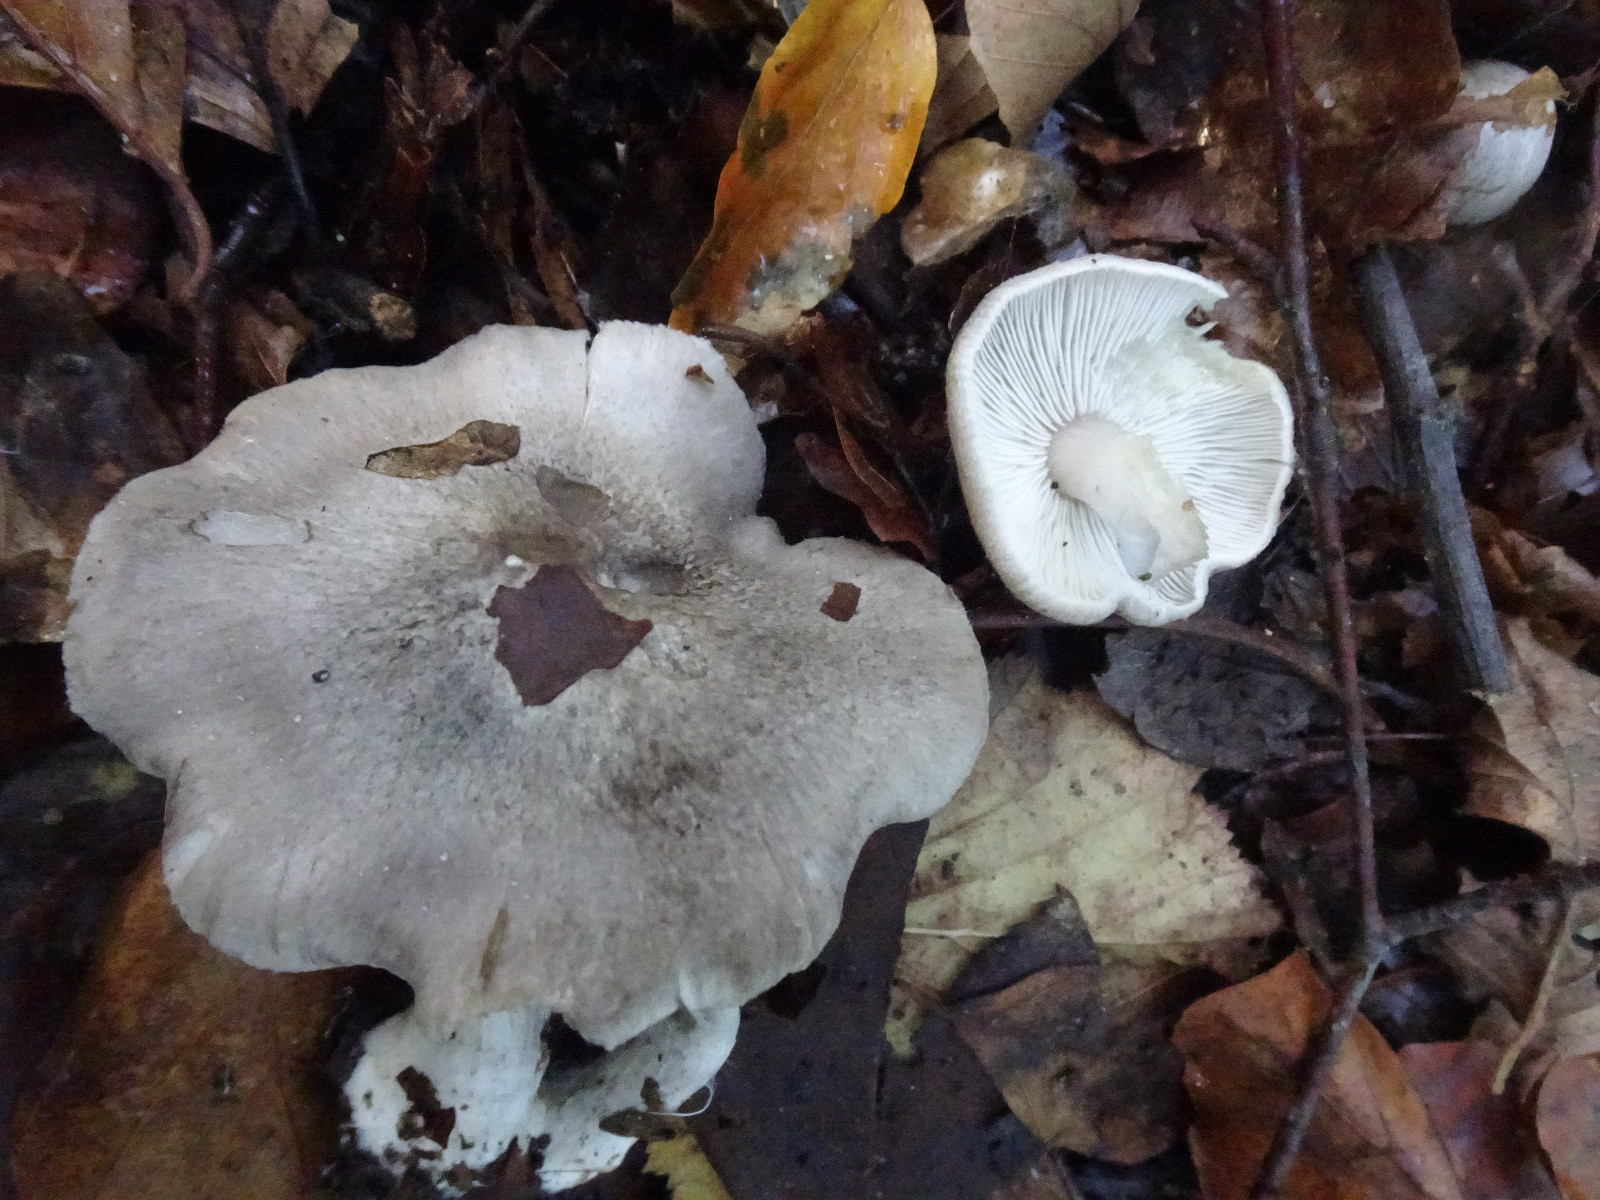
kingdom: Fungi
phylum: Basidiomycota
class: Agaricomycetes
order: Agaricales
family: Tricholomataceae
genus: Tricholoma
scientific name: Tricholoma
